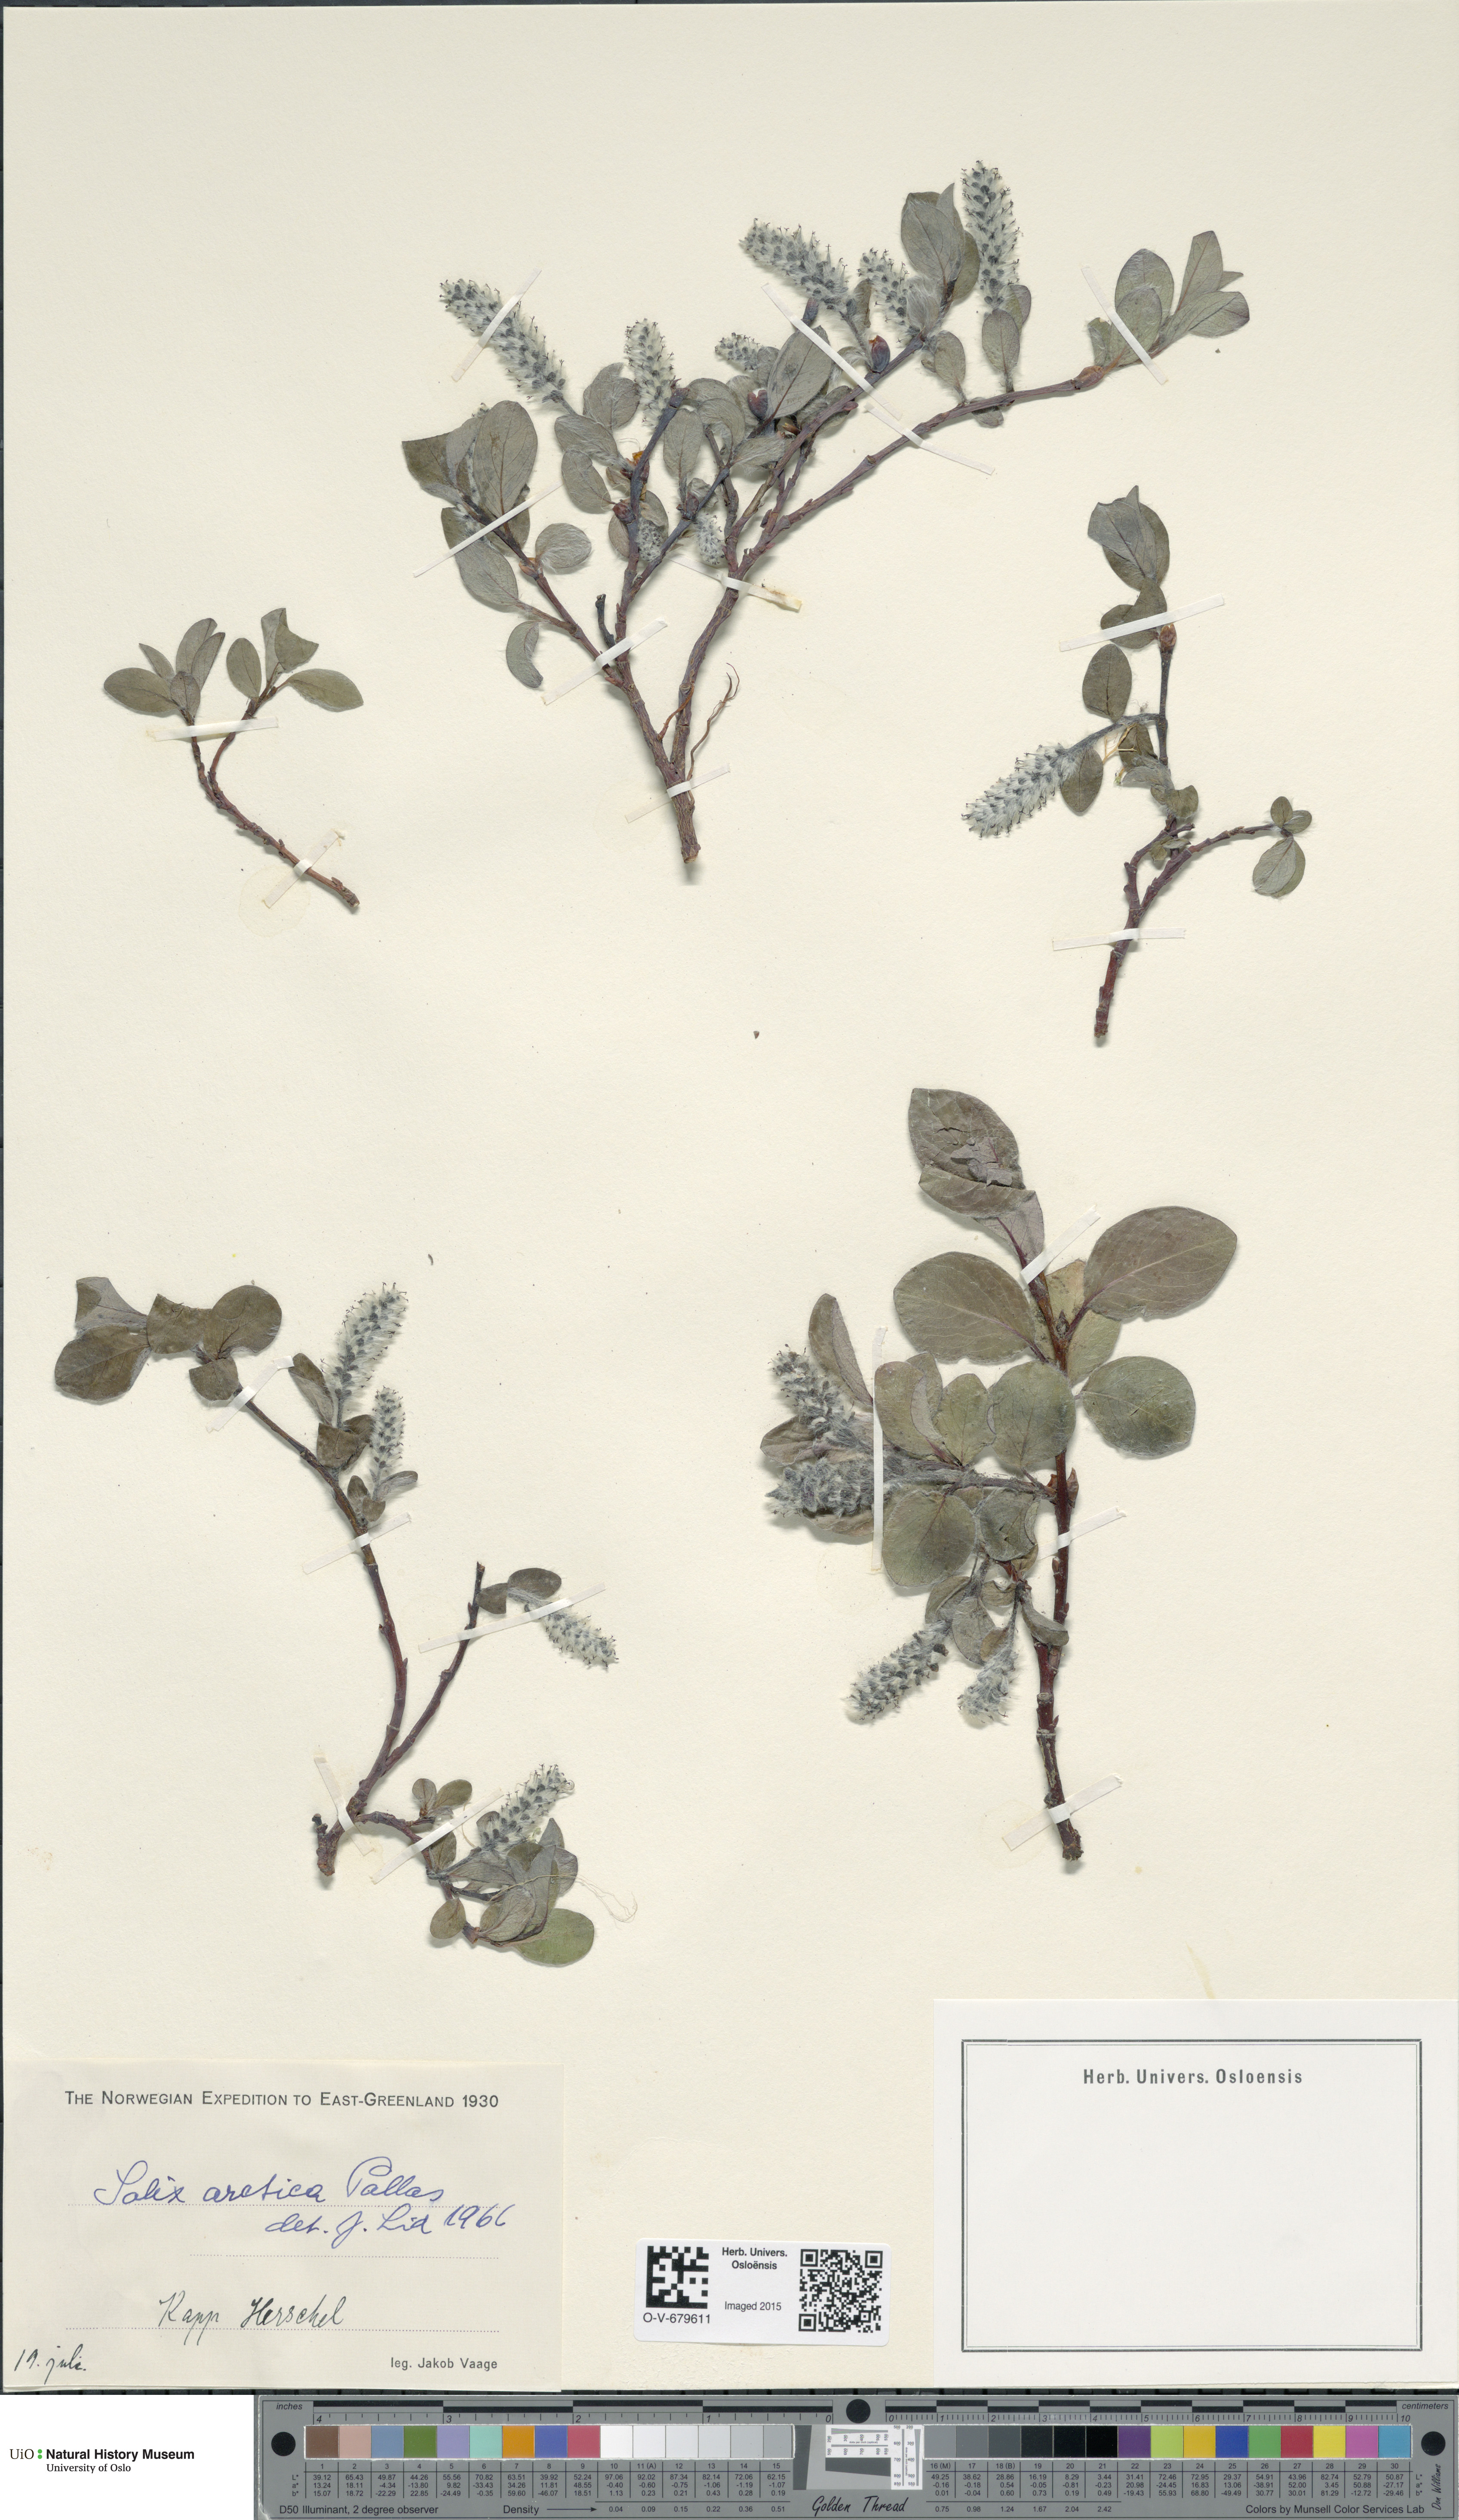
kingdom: Plantae
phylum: Tracheophyta
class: Magnoliopsida
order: Malpighiales
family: Salicaceae
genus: Salix
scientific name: Salix arctica
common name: Arctic willow
